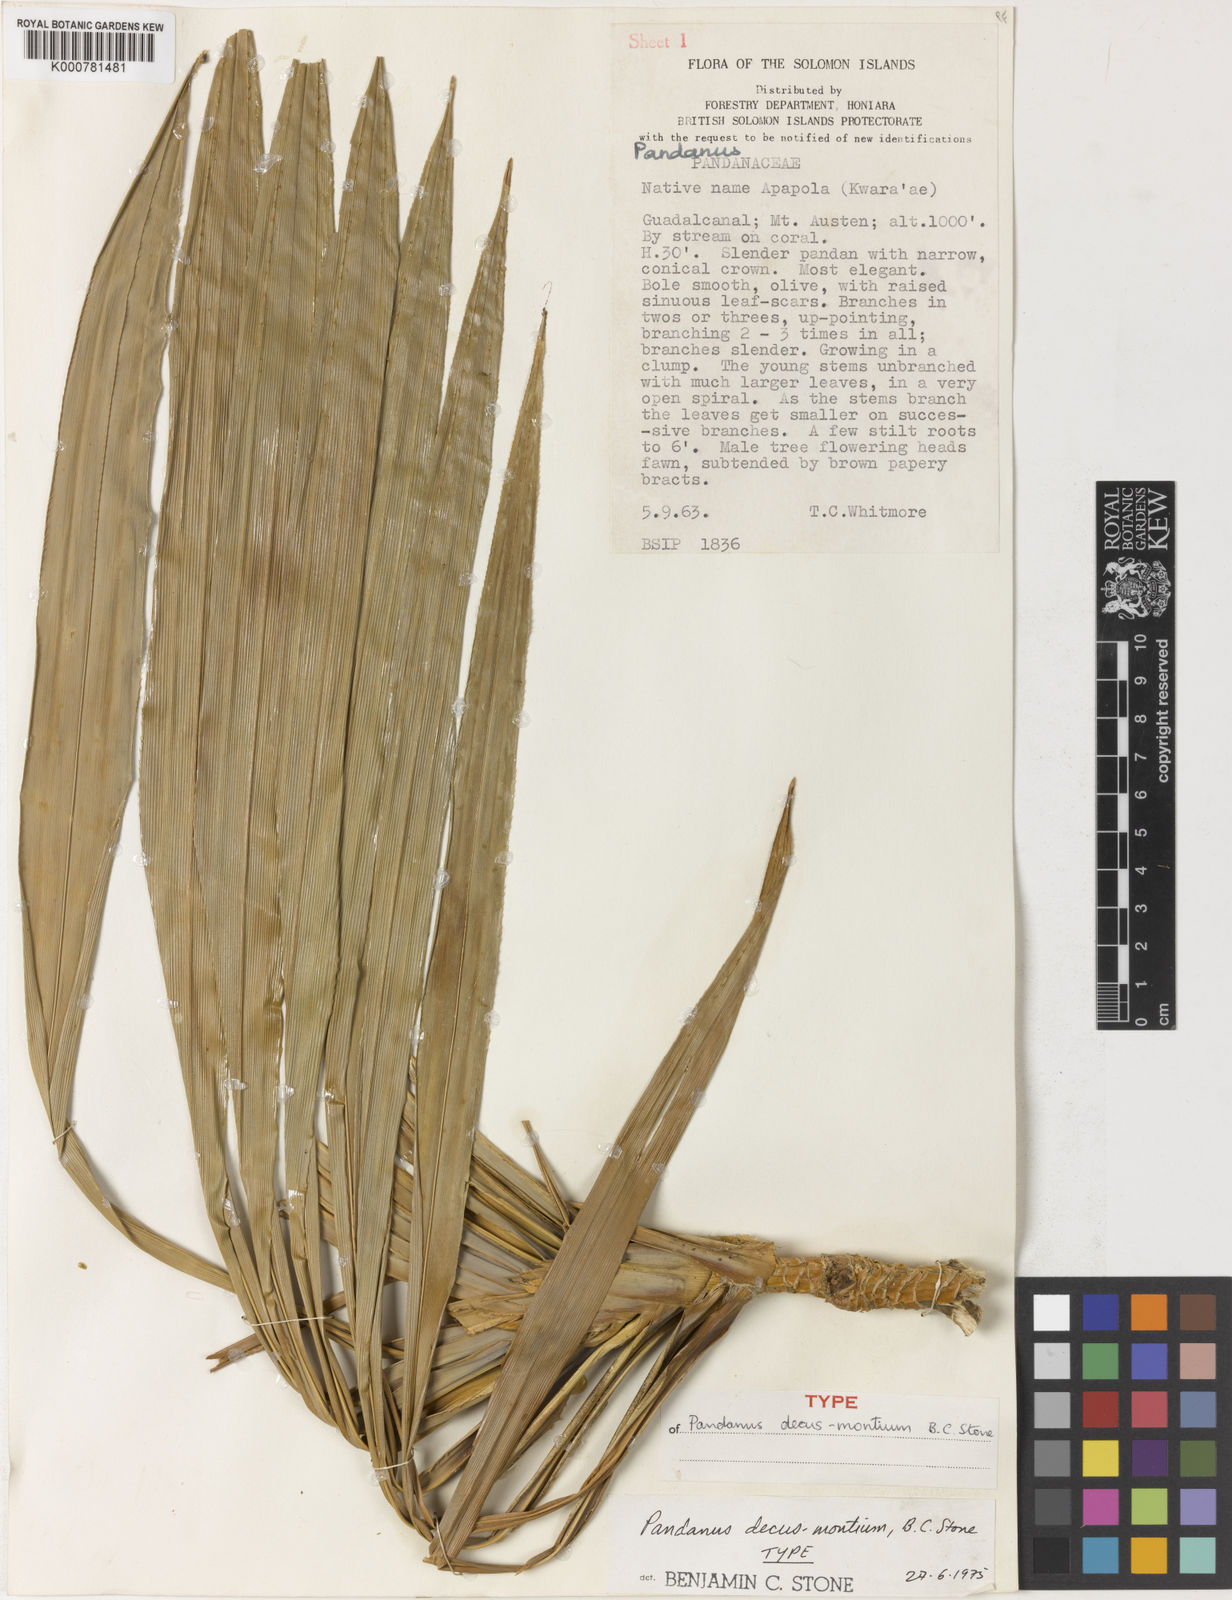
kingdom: Plantae
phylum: Tracheophyta
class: Liliopsida
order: Pandanales
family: Pandanaceae
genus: Pandanus
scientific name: Pandanus decus-montium
